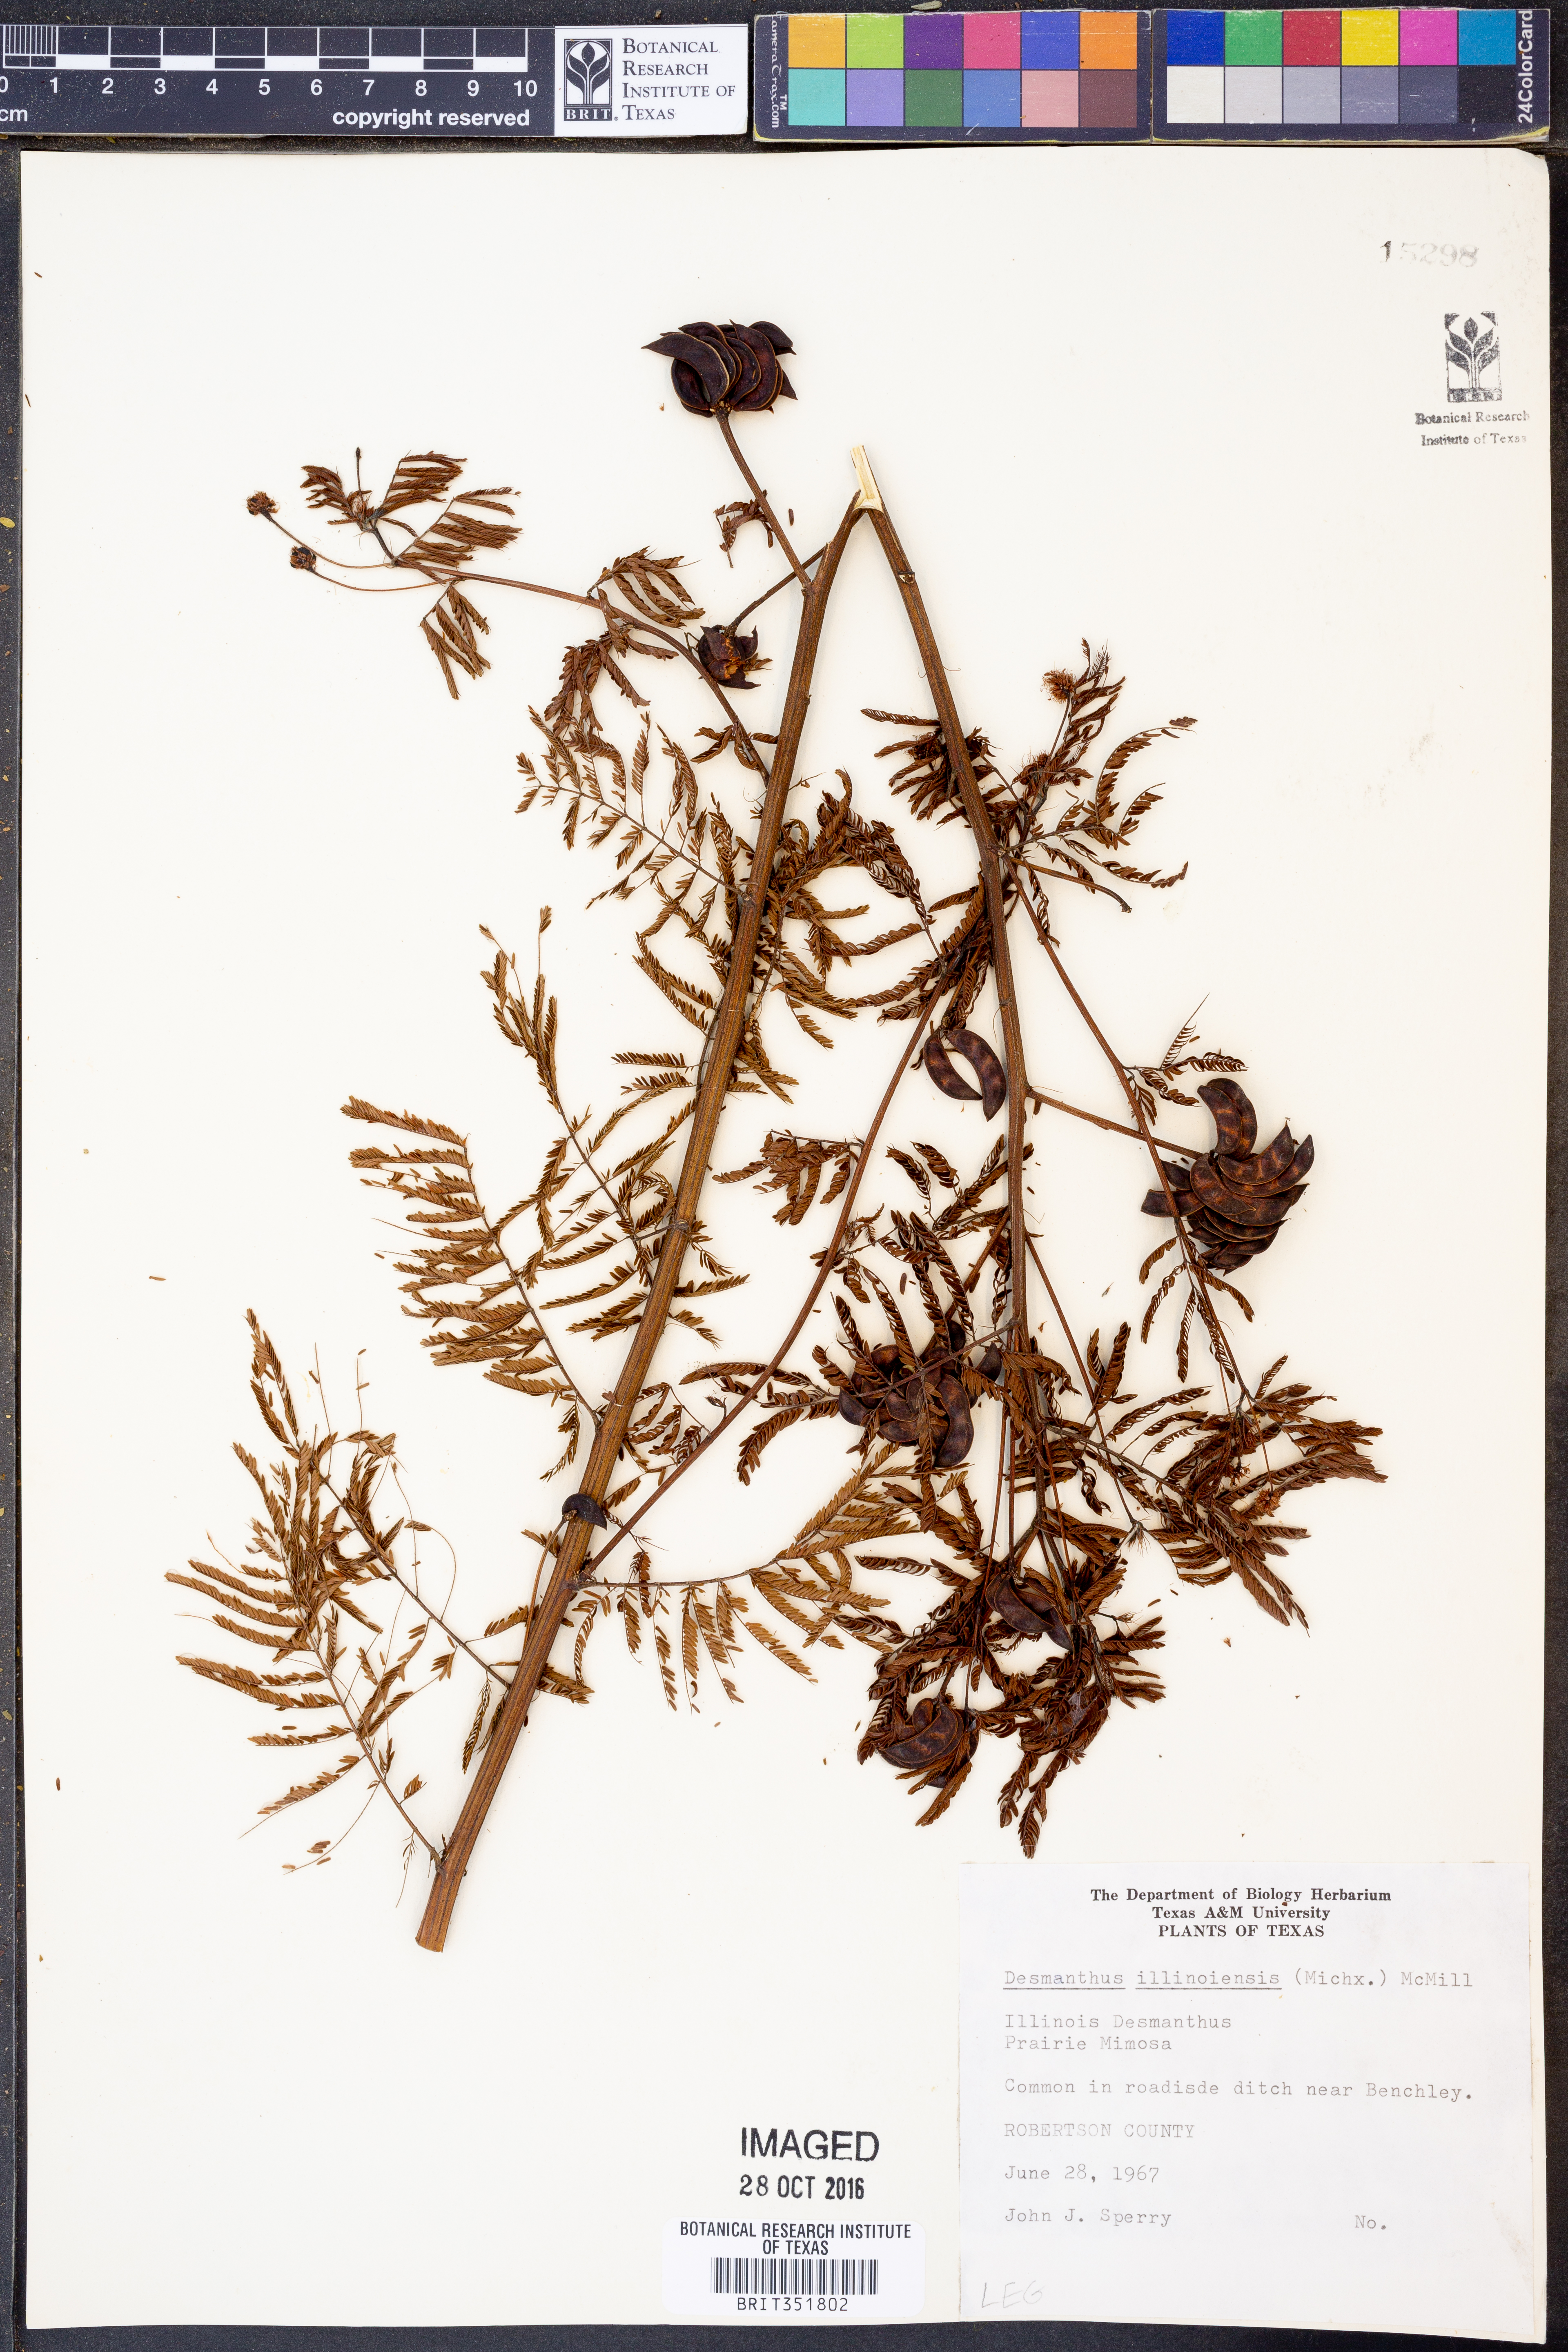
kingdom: Plantae
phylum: Tracheophyta
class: Magnoliopsida
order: Fabales
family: Fabaceae
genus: Desmanthus
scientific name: Desmanthus illinoensis
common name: Illinois bundle-flower
